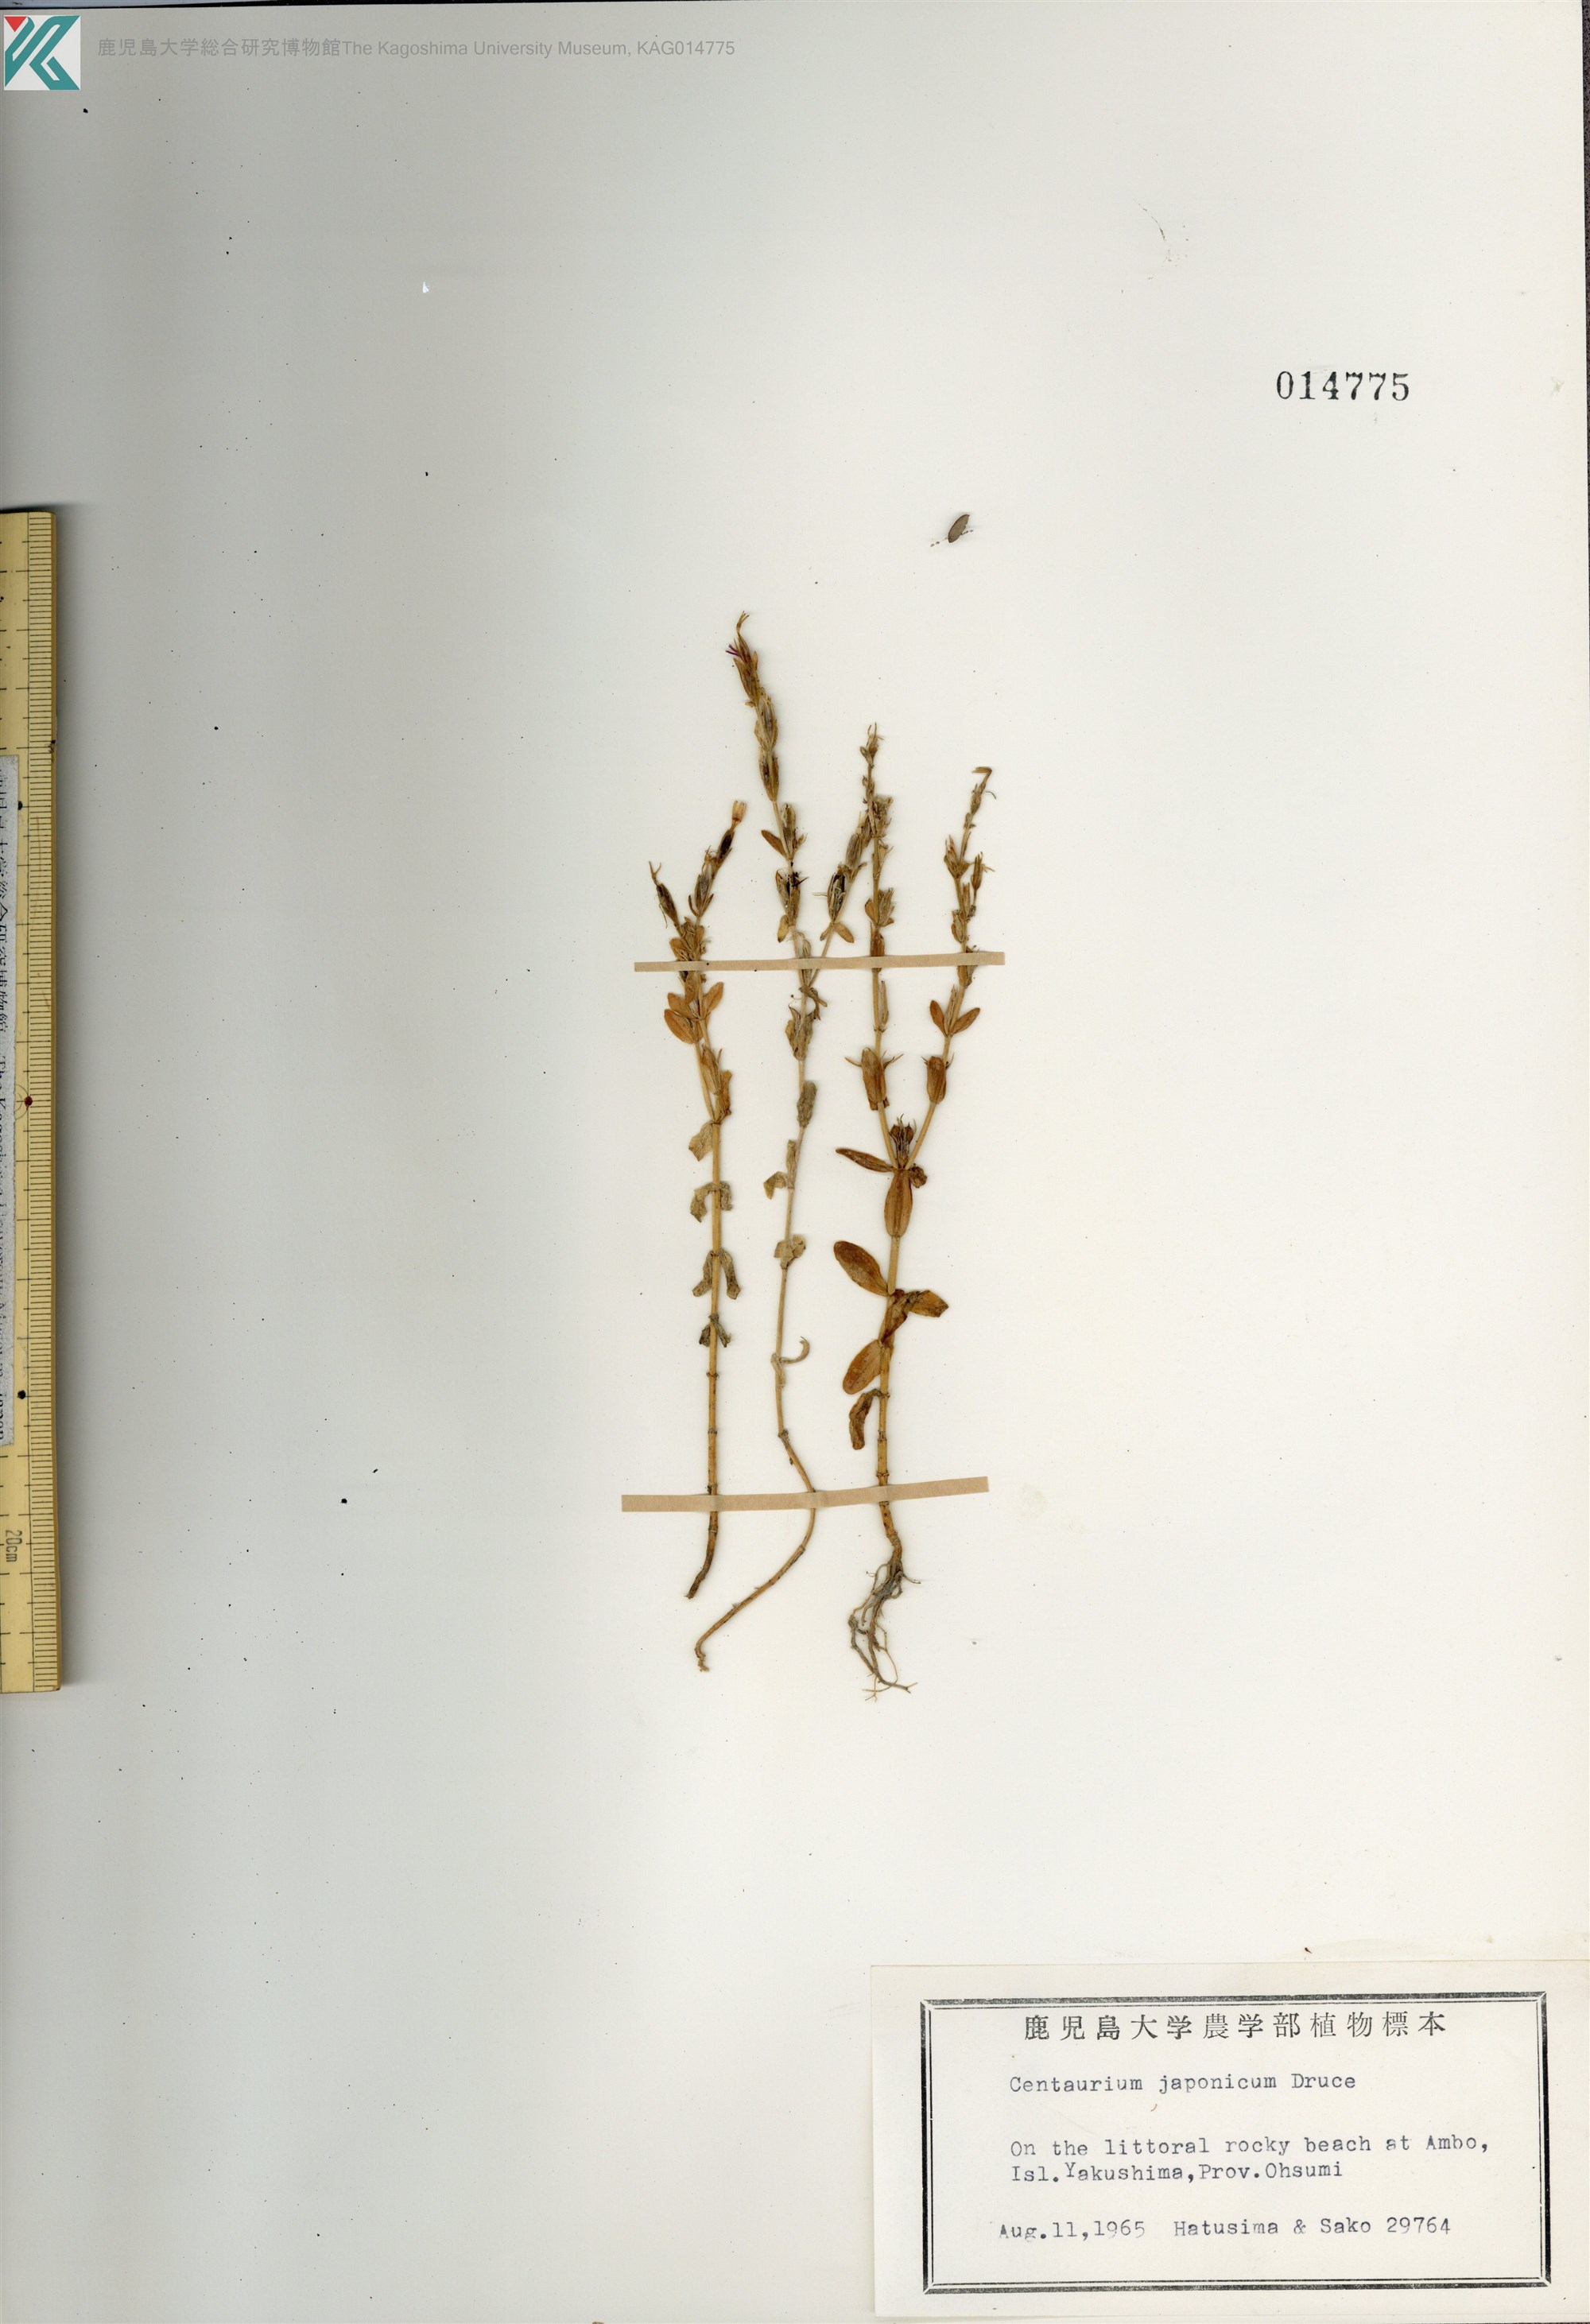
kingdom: Plantae
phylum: Tracheophyta
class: Magnoliopsida
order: Gentianales
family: Gentianaceae
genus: Schenkia
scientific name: Schenkia japonica
